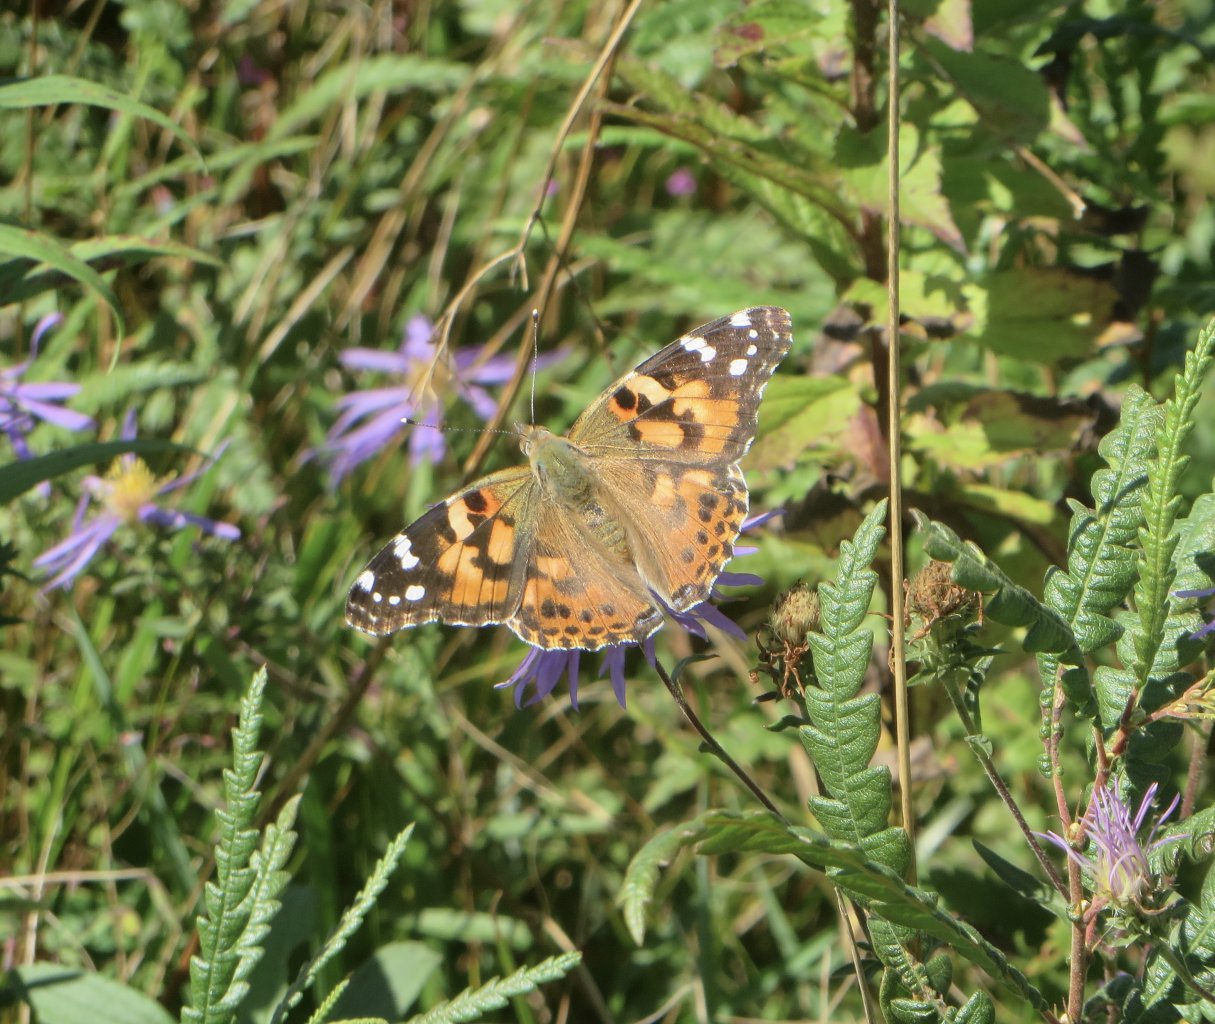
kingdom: Animalia
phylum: Arthropoda
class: Insecta
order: Lepidoptera
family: Nymphalidae
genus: Vanessa
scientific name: Vanessa cardui
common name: Painted Lady
